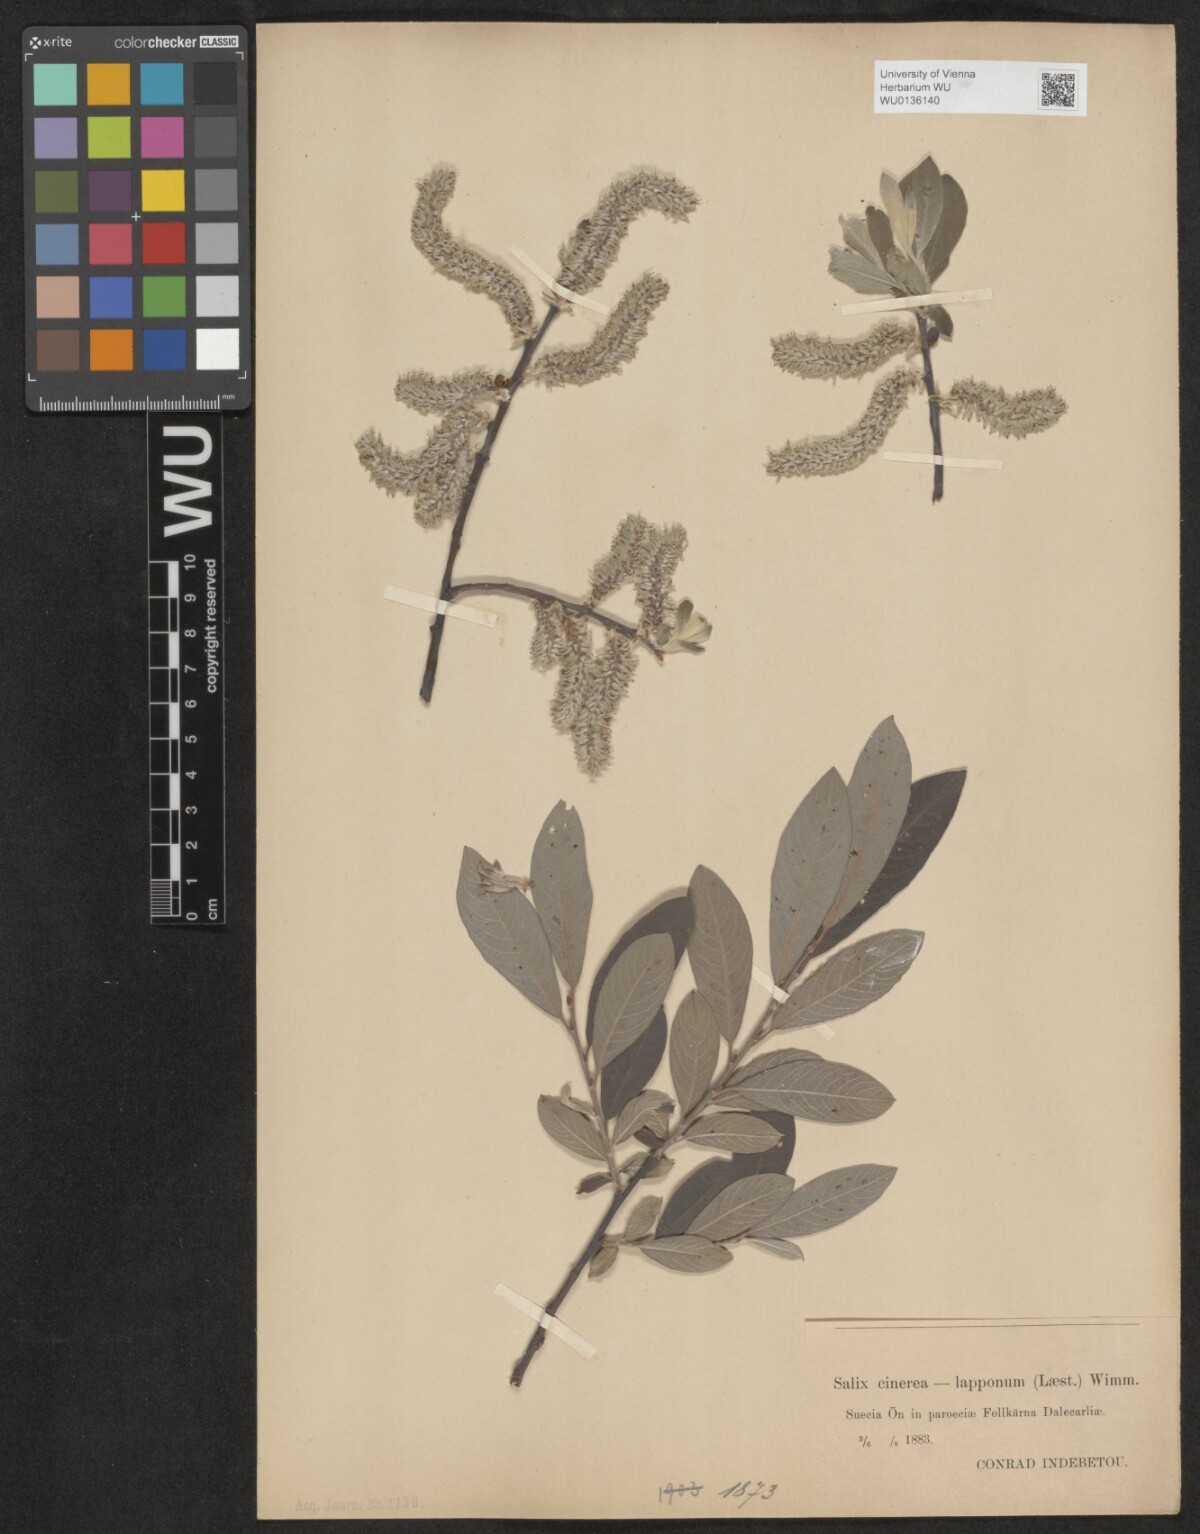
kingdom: Plantae
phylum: Tracheophyta
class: Magnoliopsida
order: Malpighiales
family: Salicaceae
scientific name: Salicaceae
